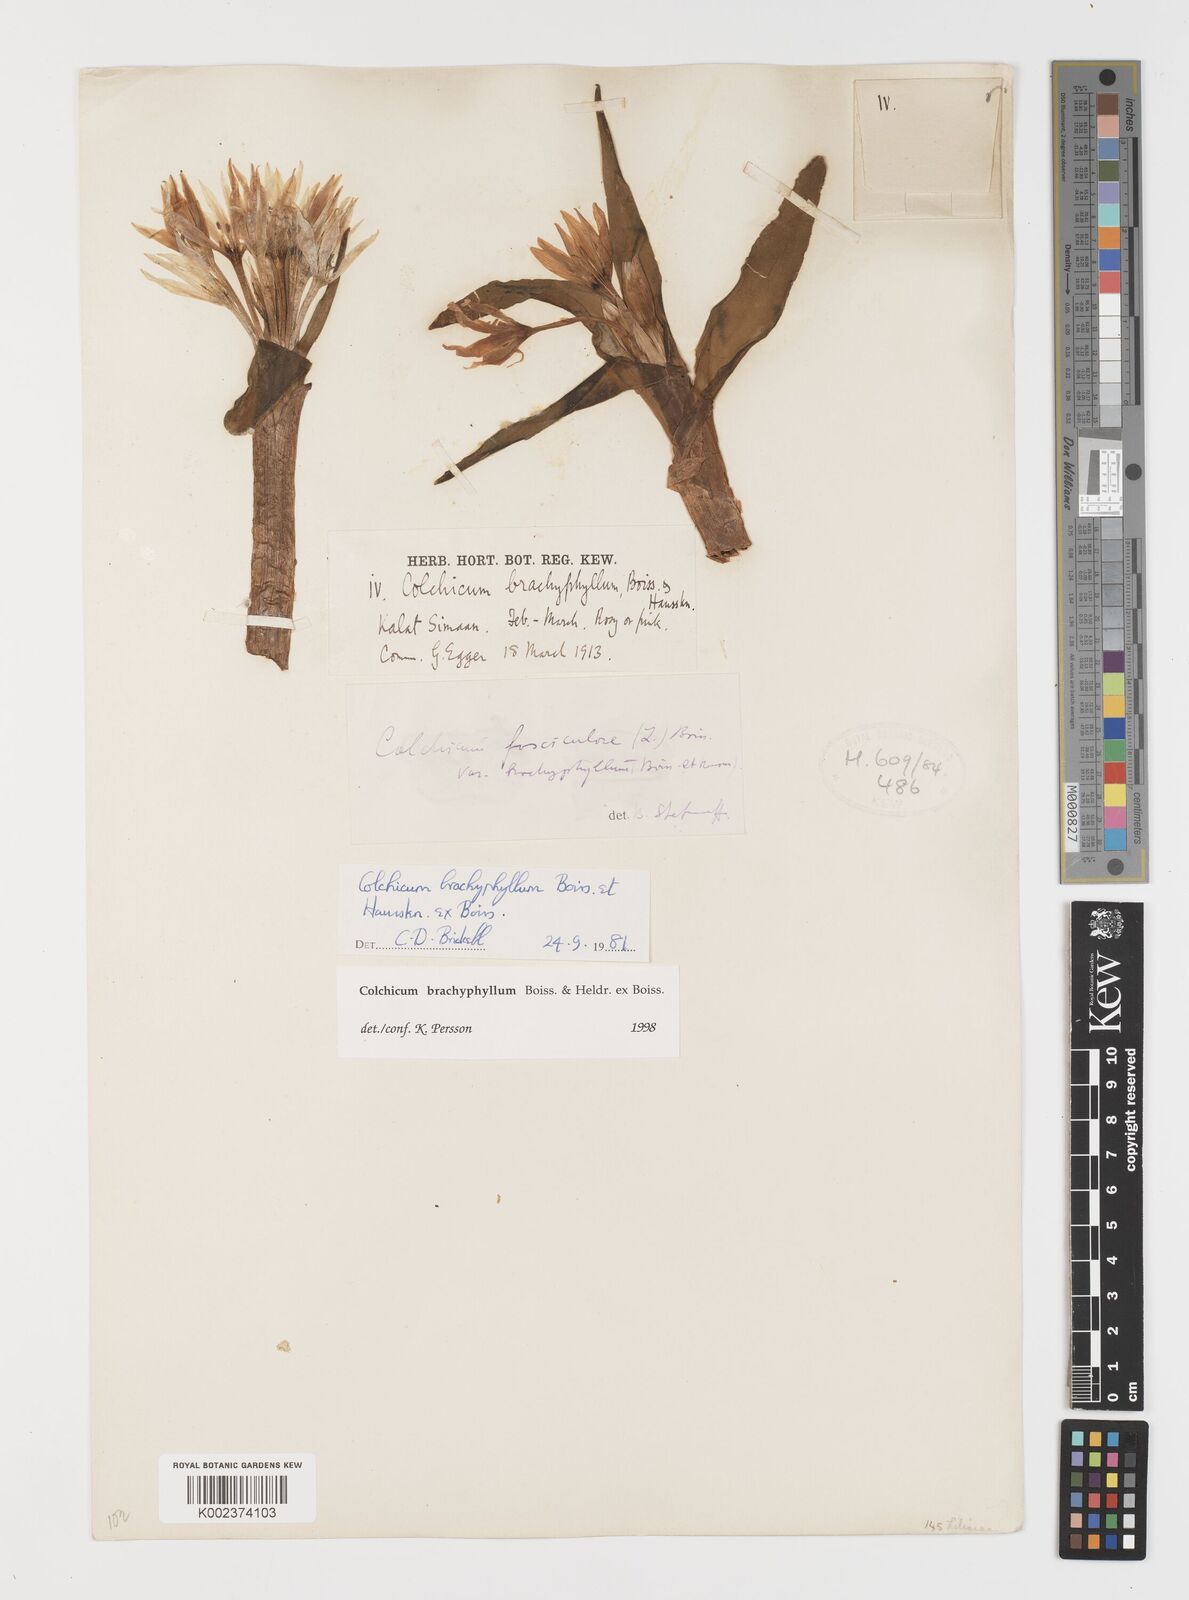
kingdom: Plantae
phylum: Tracheophyta
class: Liliopsida
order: Liliales
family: Colchicaceae
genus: Colchicum
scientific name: Colchicum szovitsii
